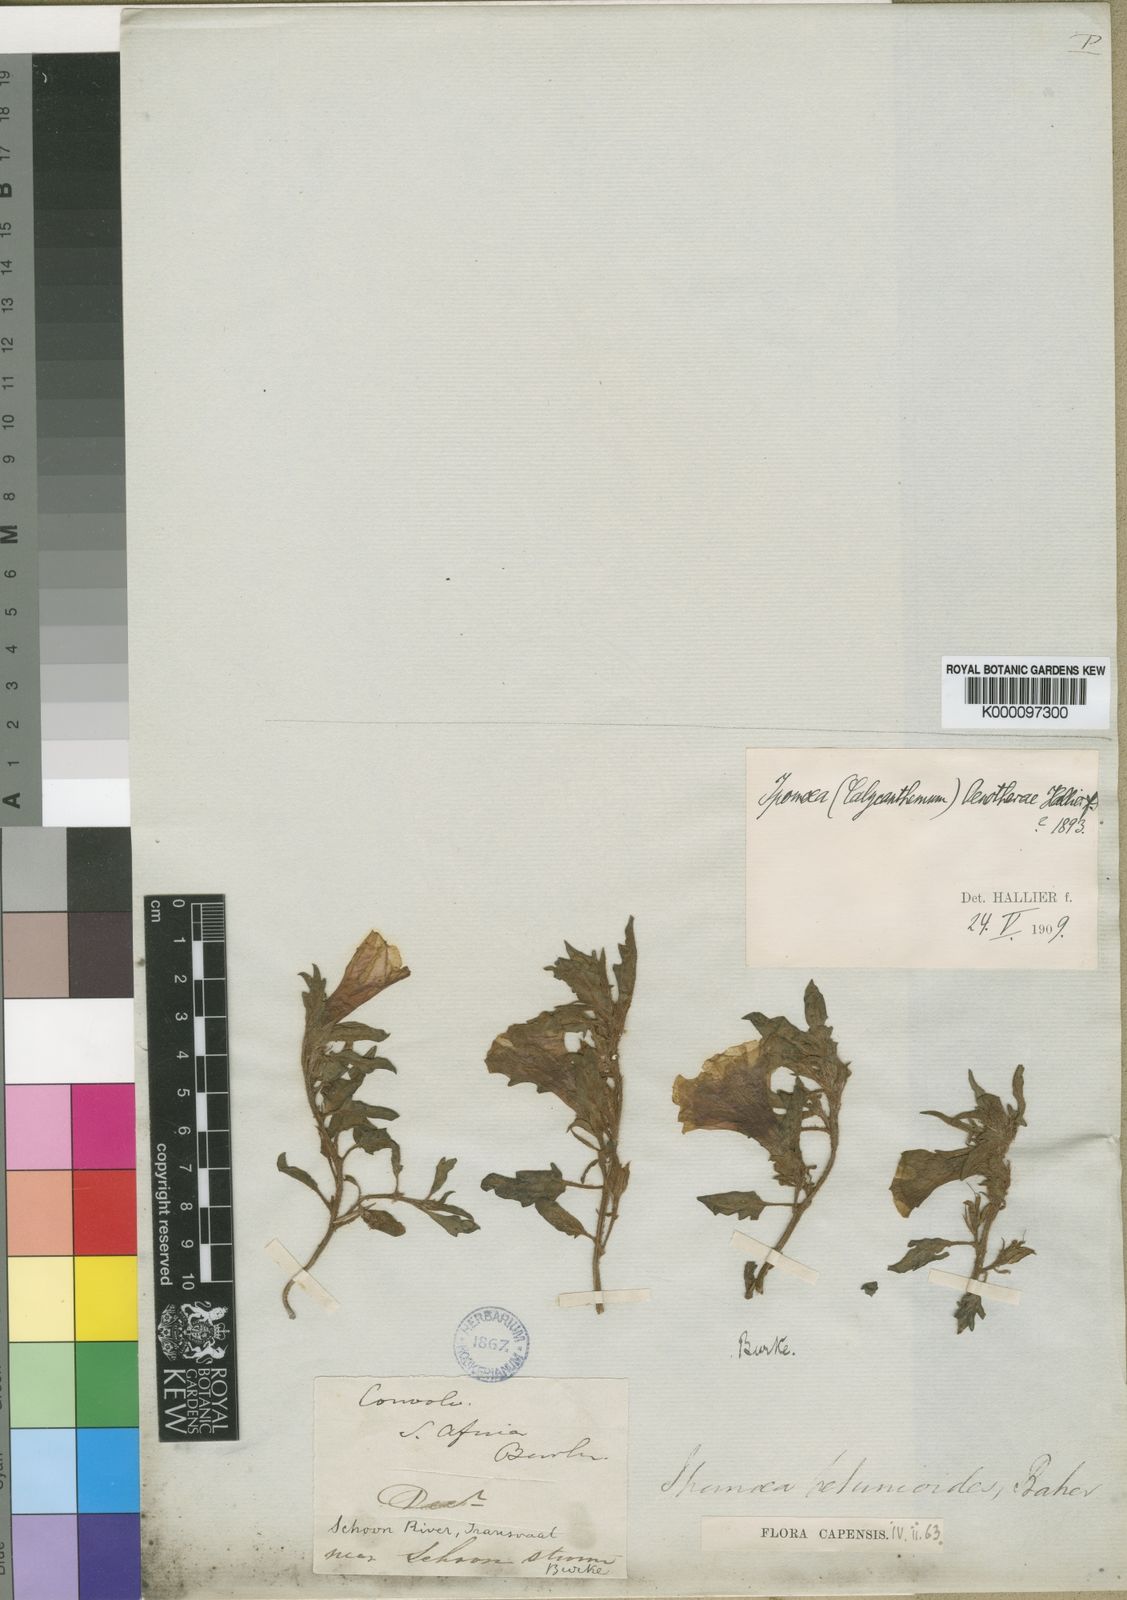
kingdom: Plantae
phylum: Tracheophyta
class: Magnoliopsida
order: Solanales
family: Convolvulaceae
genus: Ipomoea
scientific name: Ipomoea oenotherae
